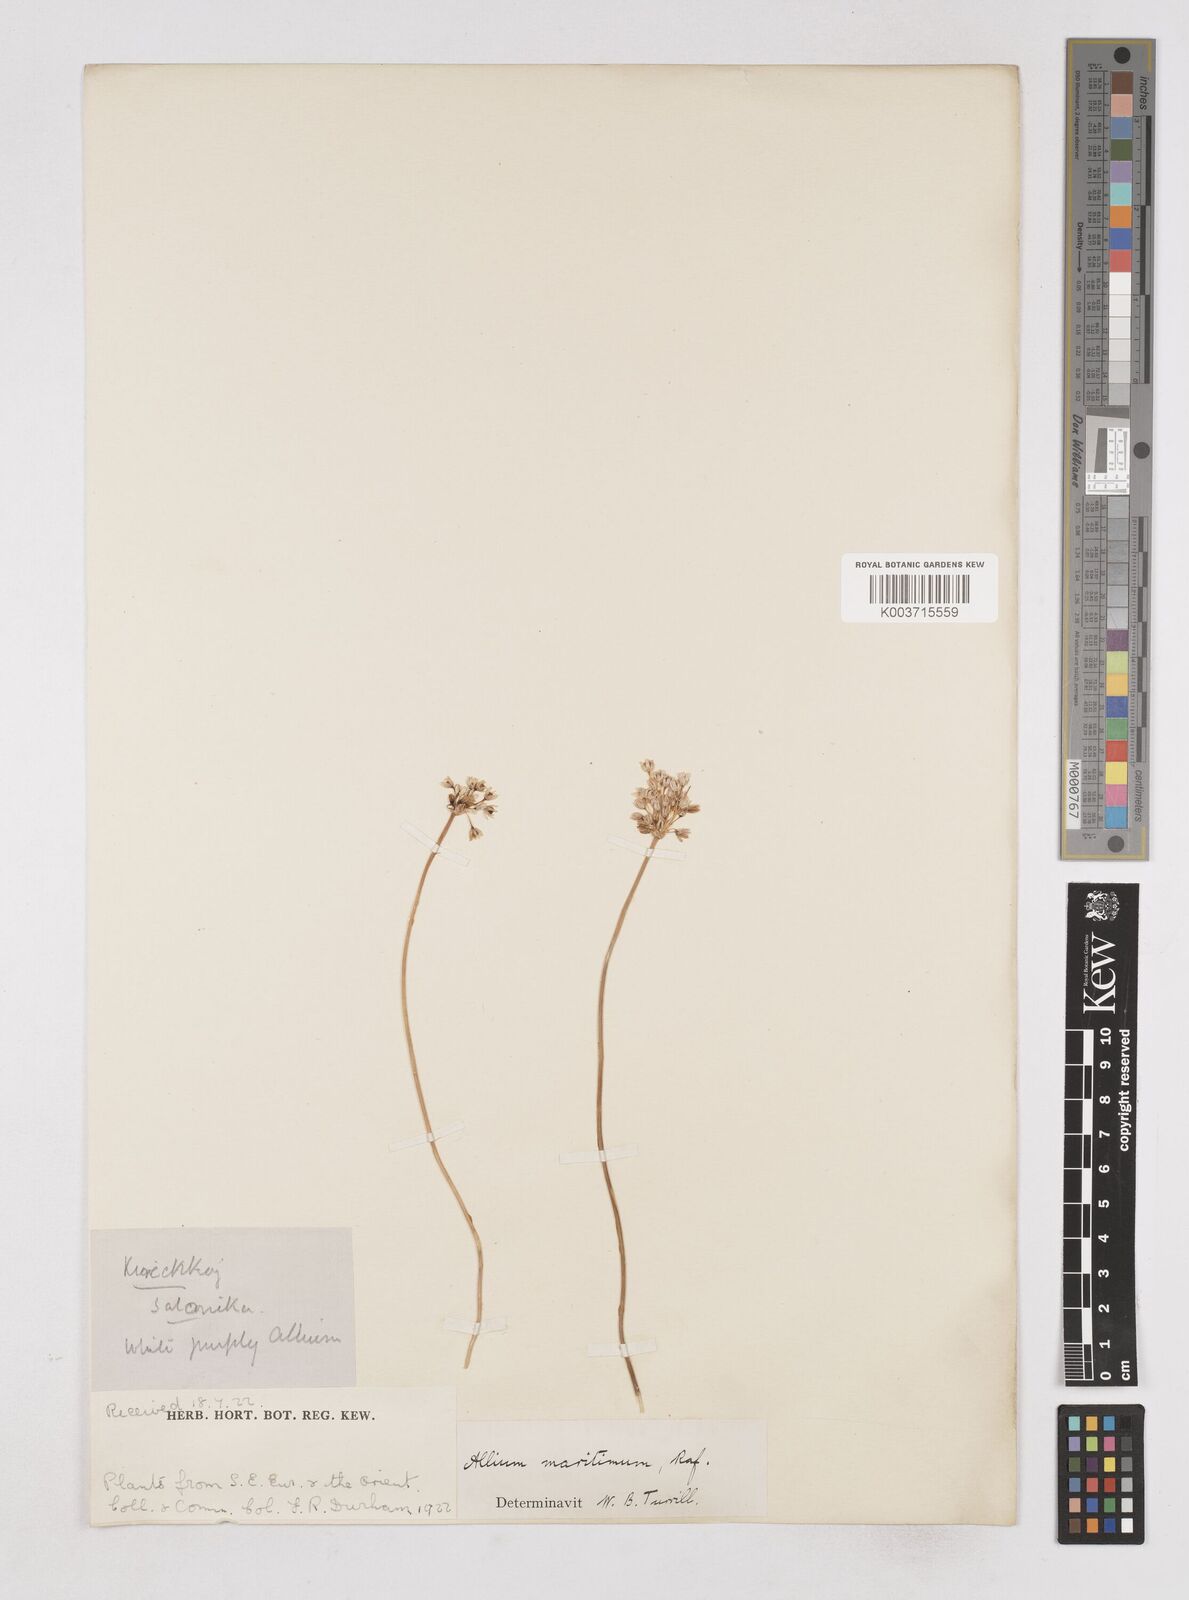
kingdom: Plantae
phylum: Tracheophyta
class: Liliopsida
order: Asparagales
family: Amaryllidaceae
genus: Allium
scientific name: Allium
